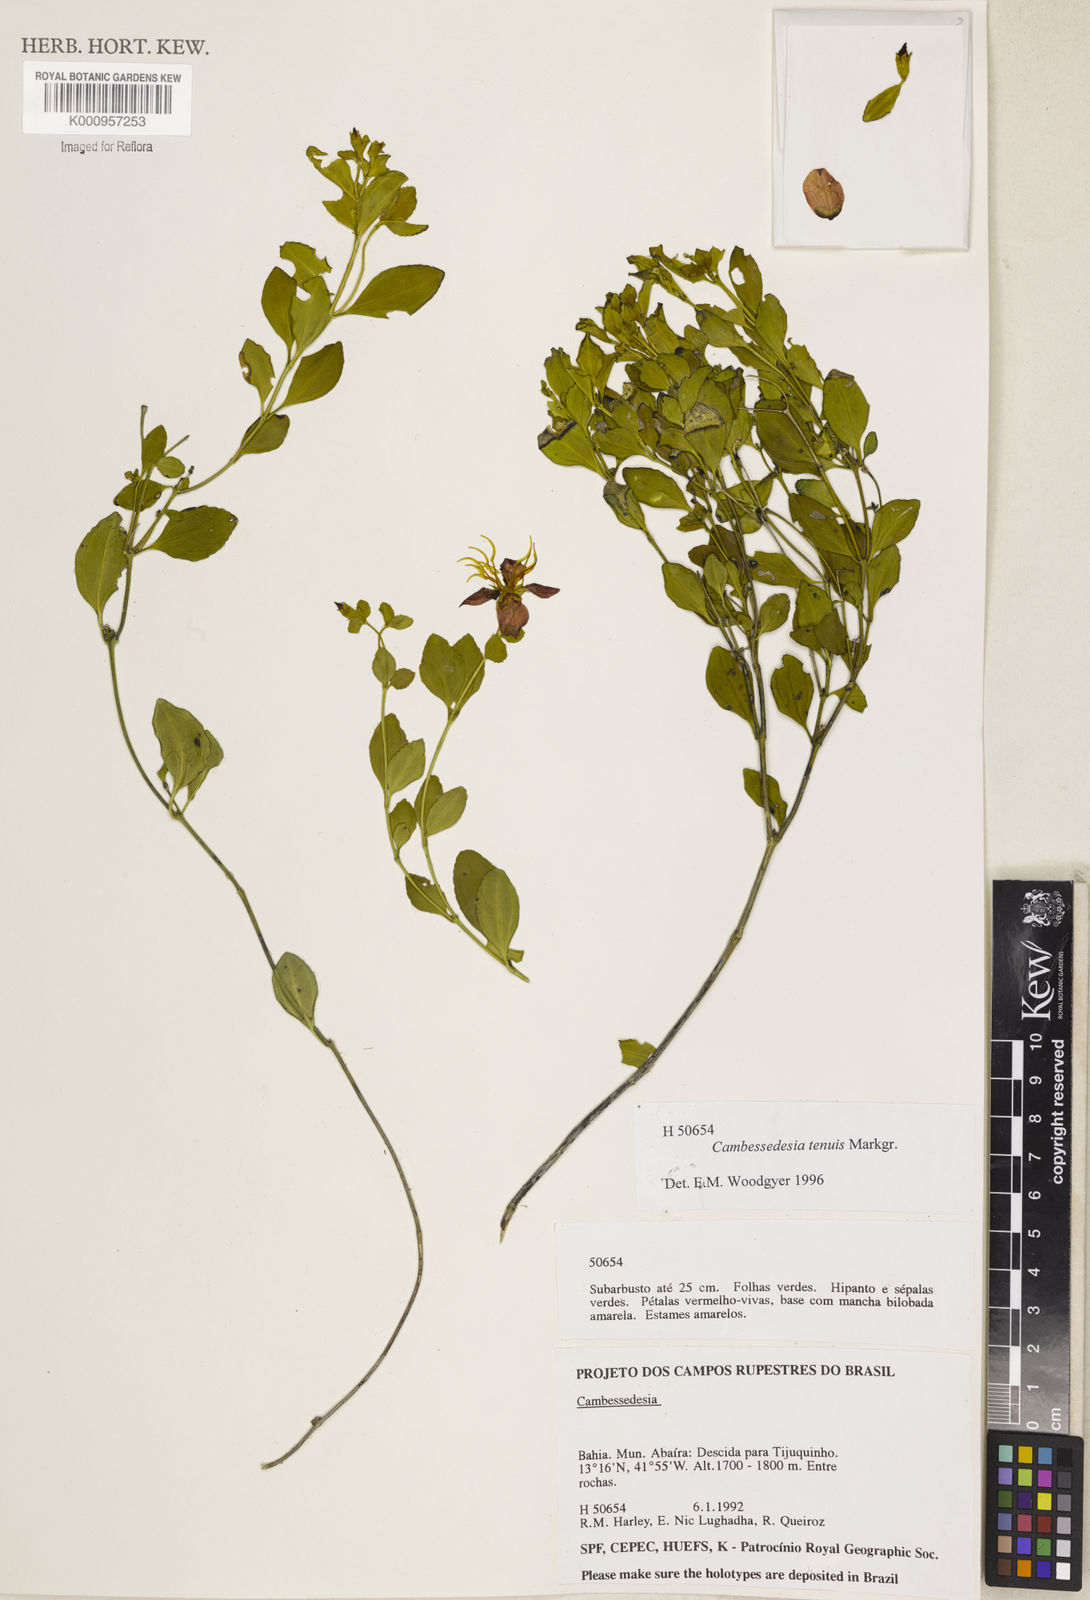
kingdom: Plantae
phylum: Tracheophyta
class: Magnoliopsida
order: Myrtales
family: Melastomataceae
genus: Cambessedesia
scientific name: Cambessedesia tenuis
